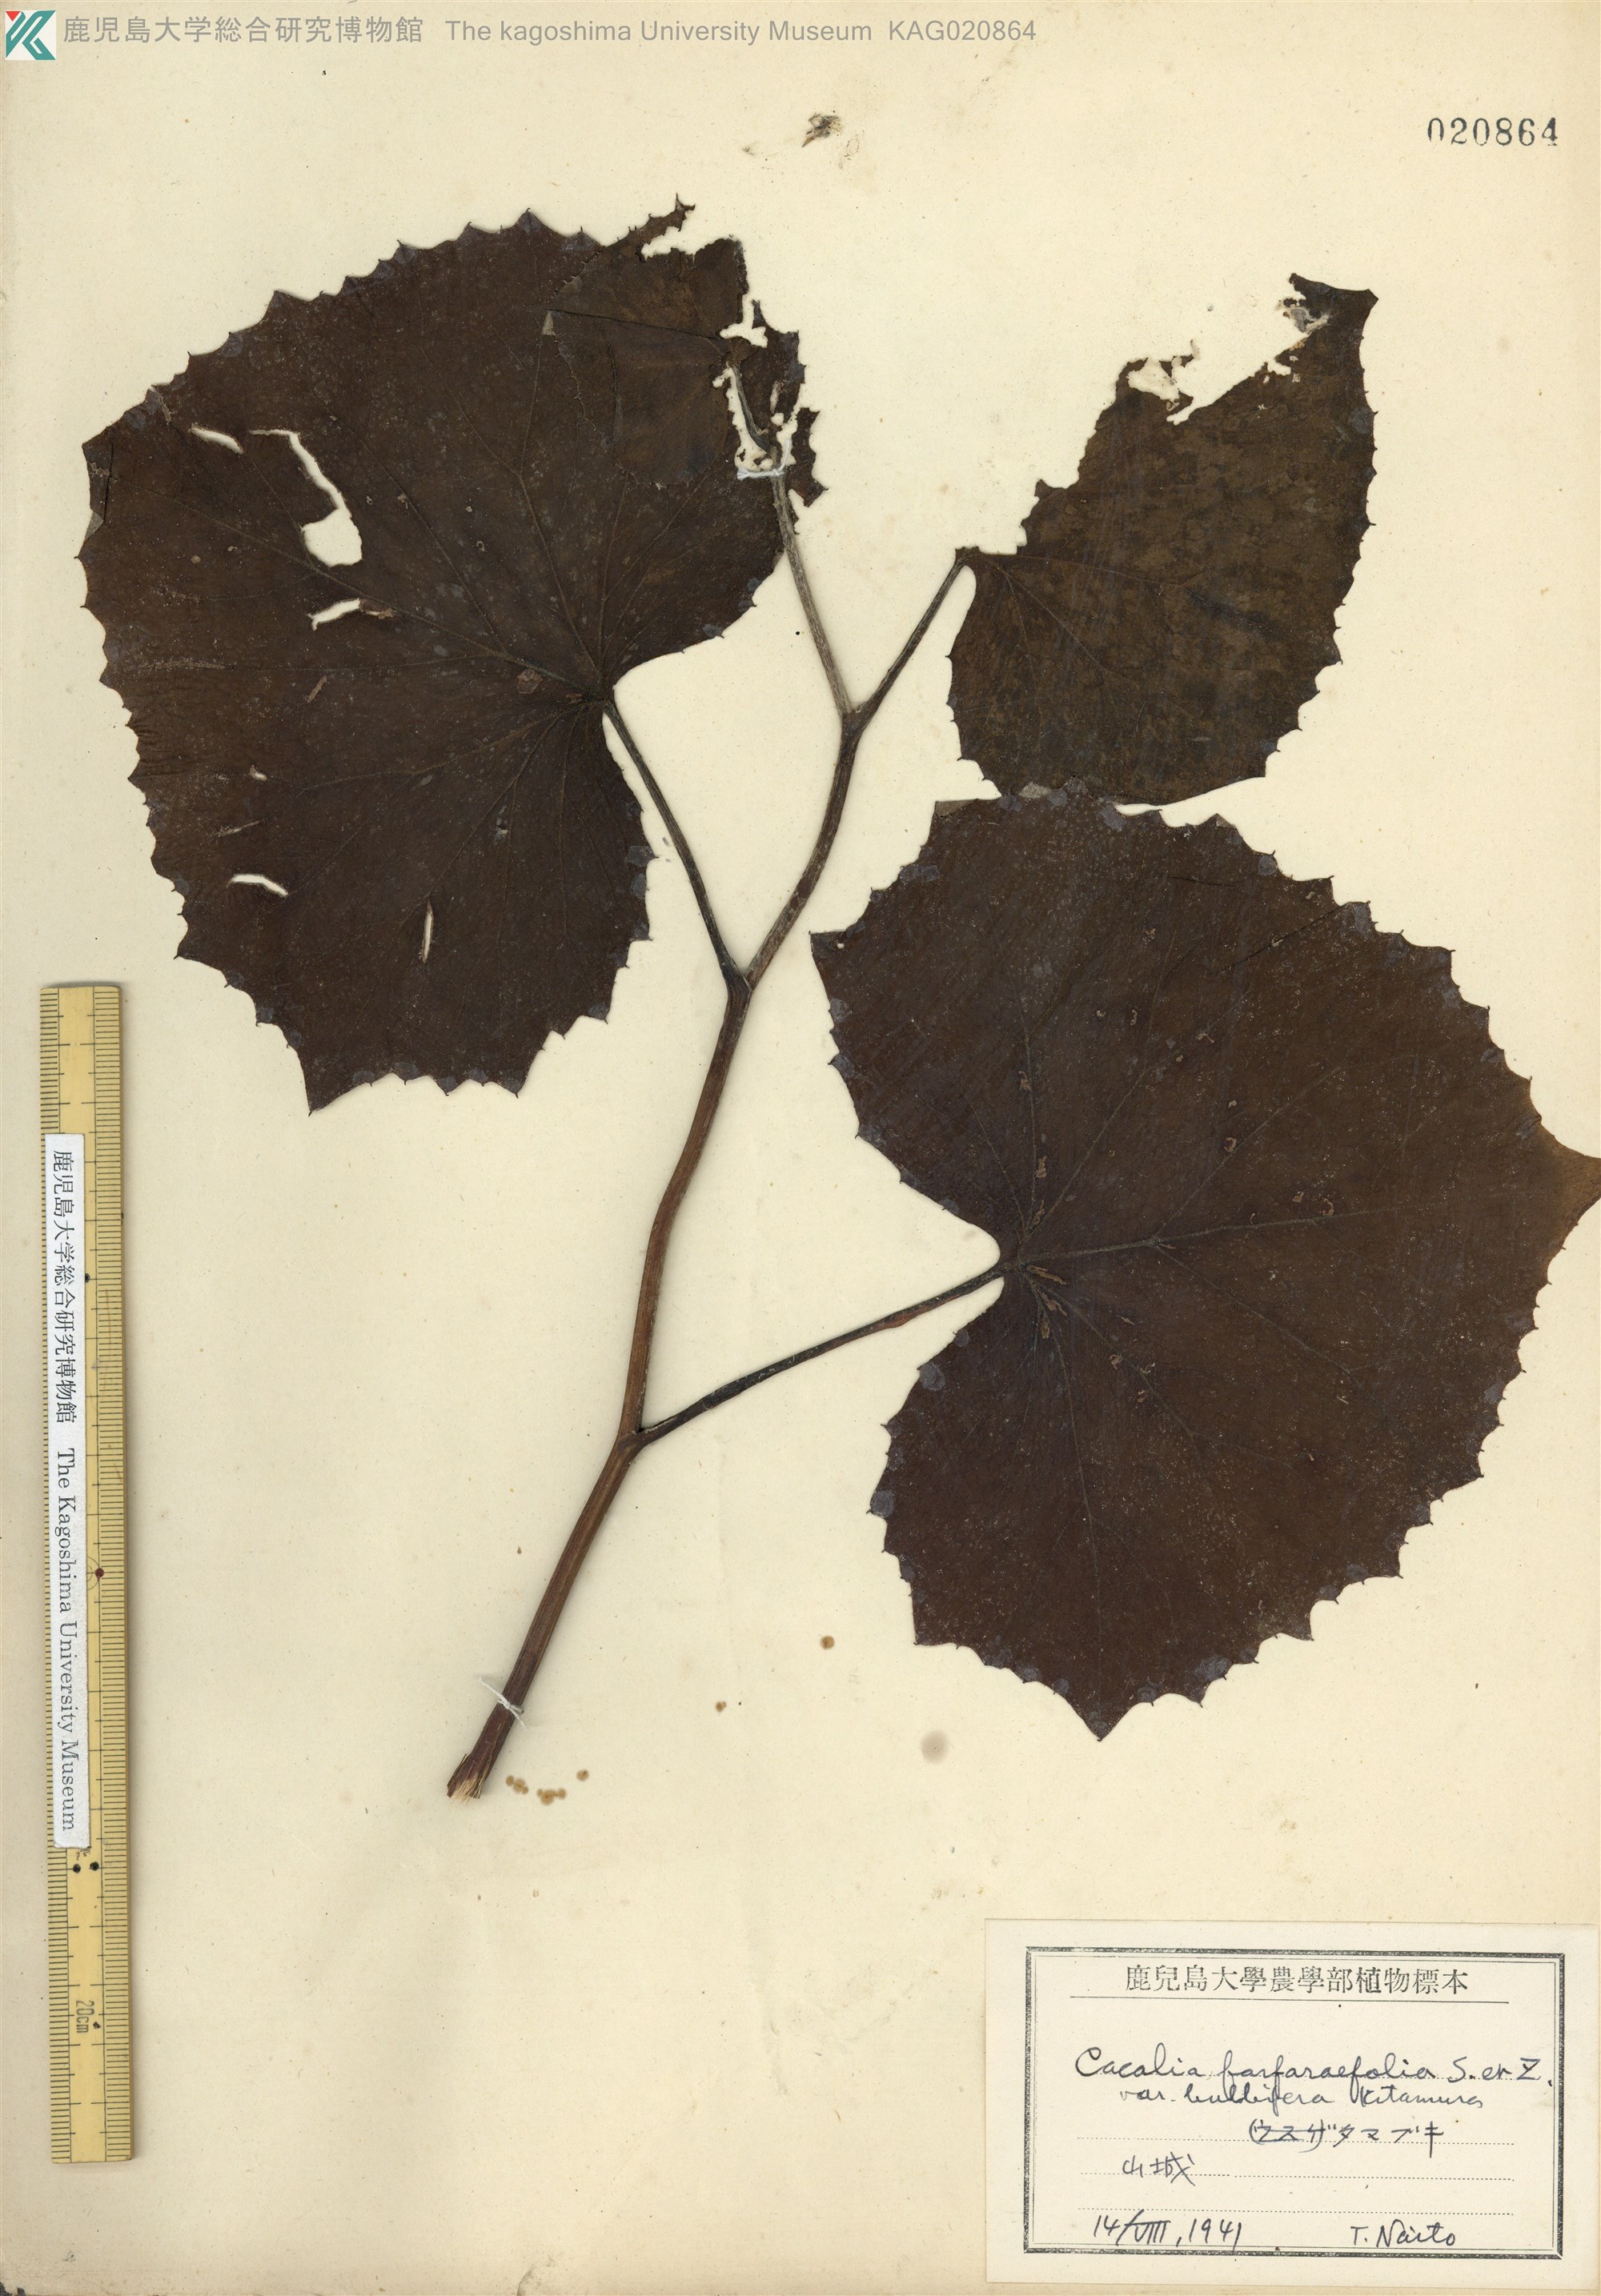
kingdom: Plantae
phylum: Tracheophyta
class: Magnoliopsida
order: Asterales
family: Asteraceae
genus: Parasenecio
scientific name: Parasenecio farfarifolius
